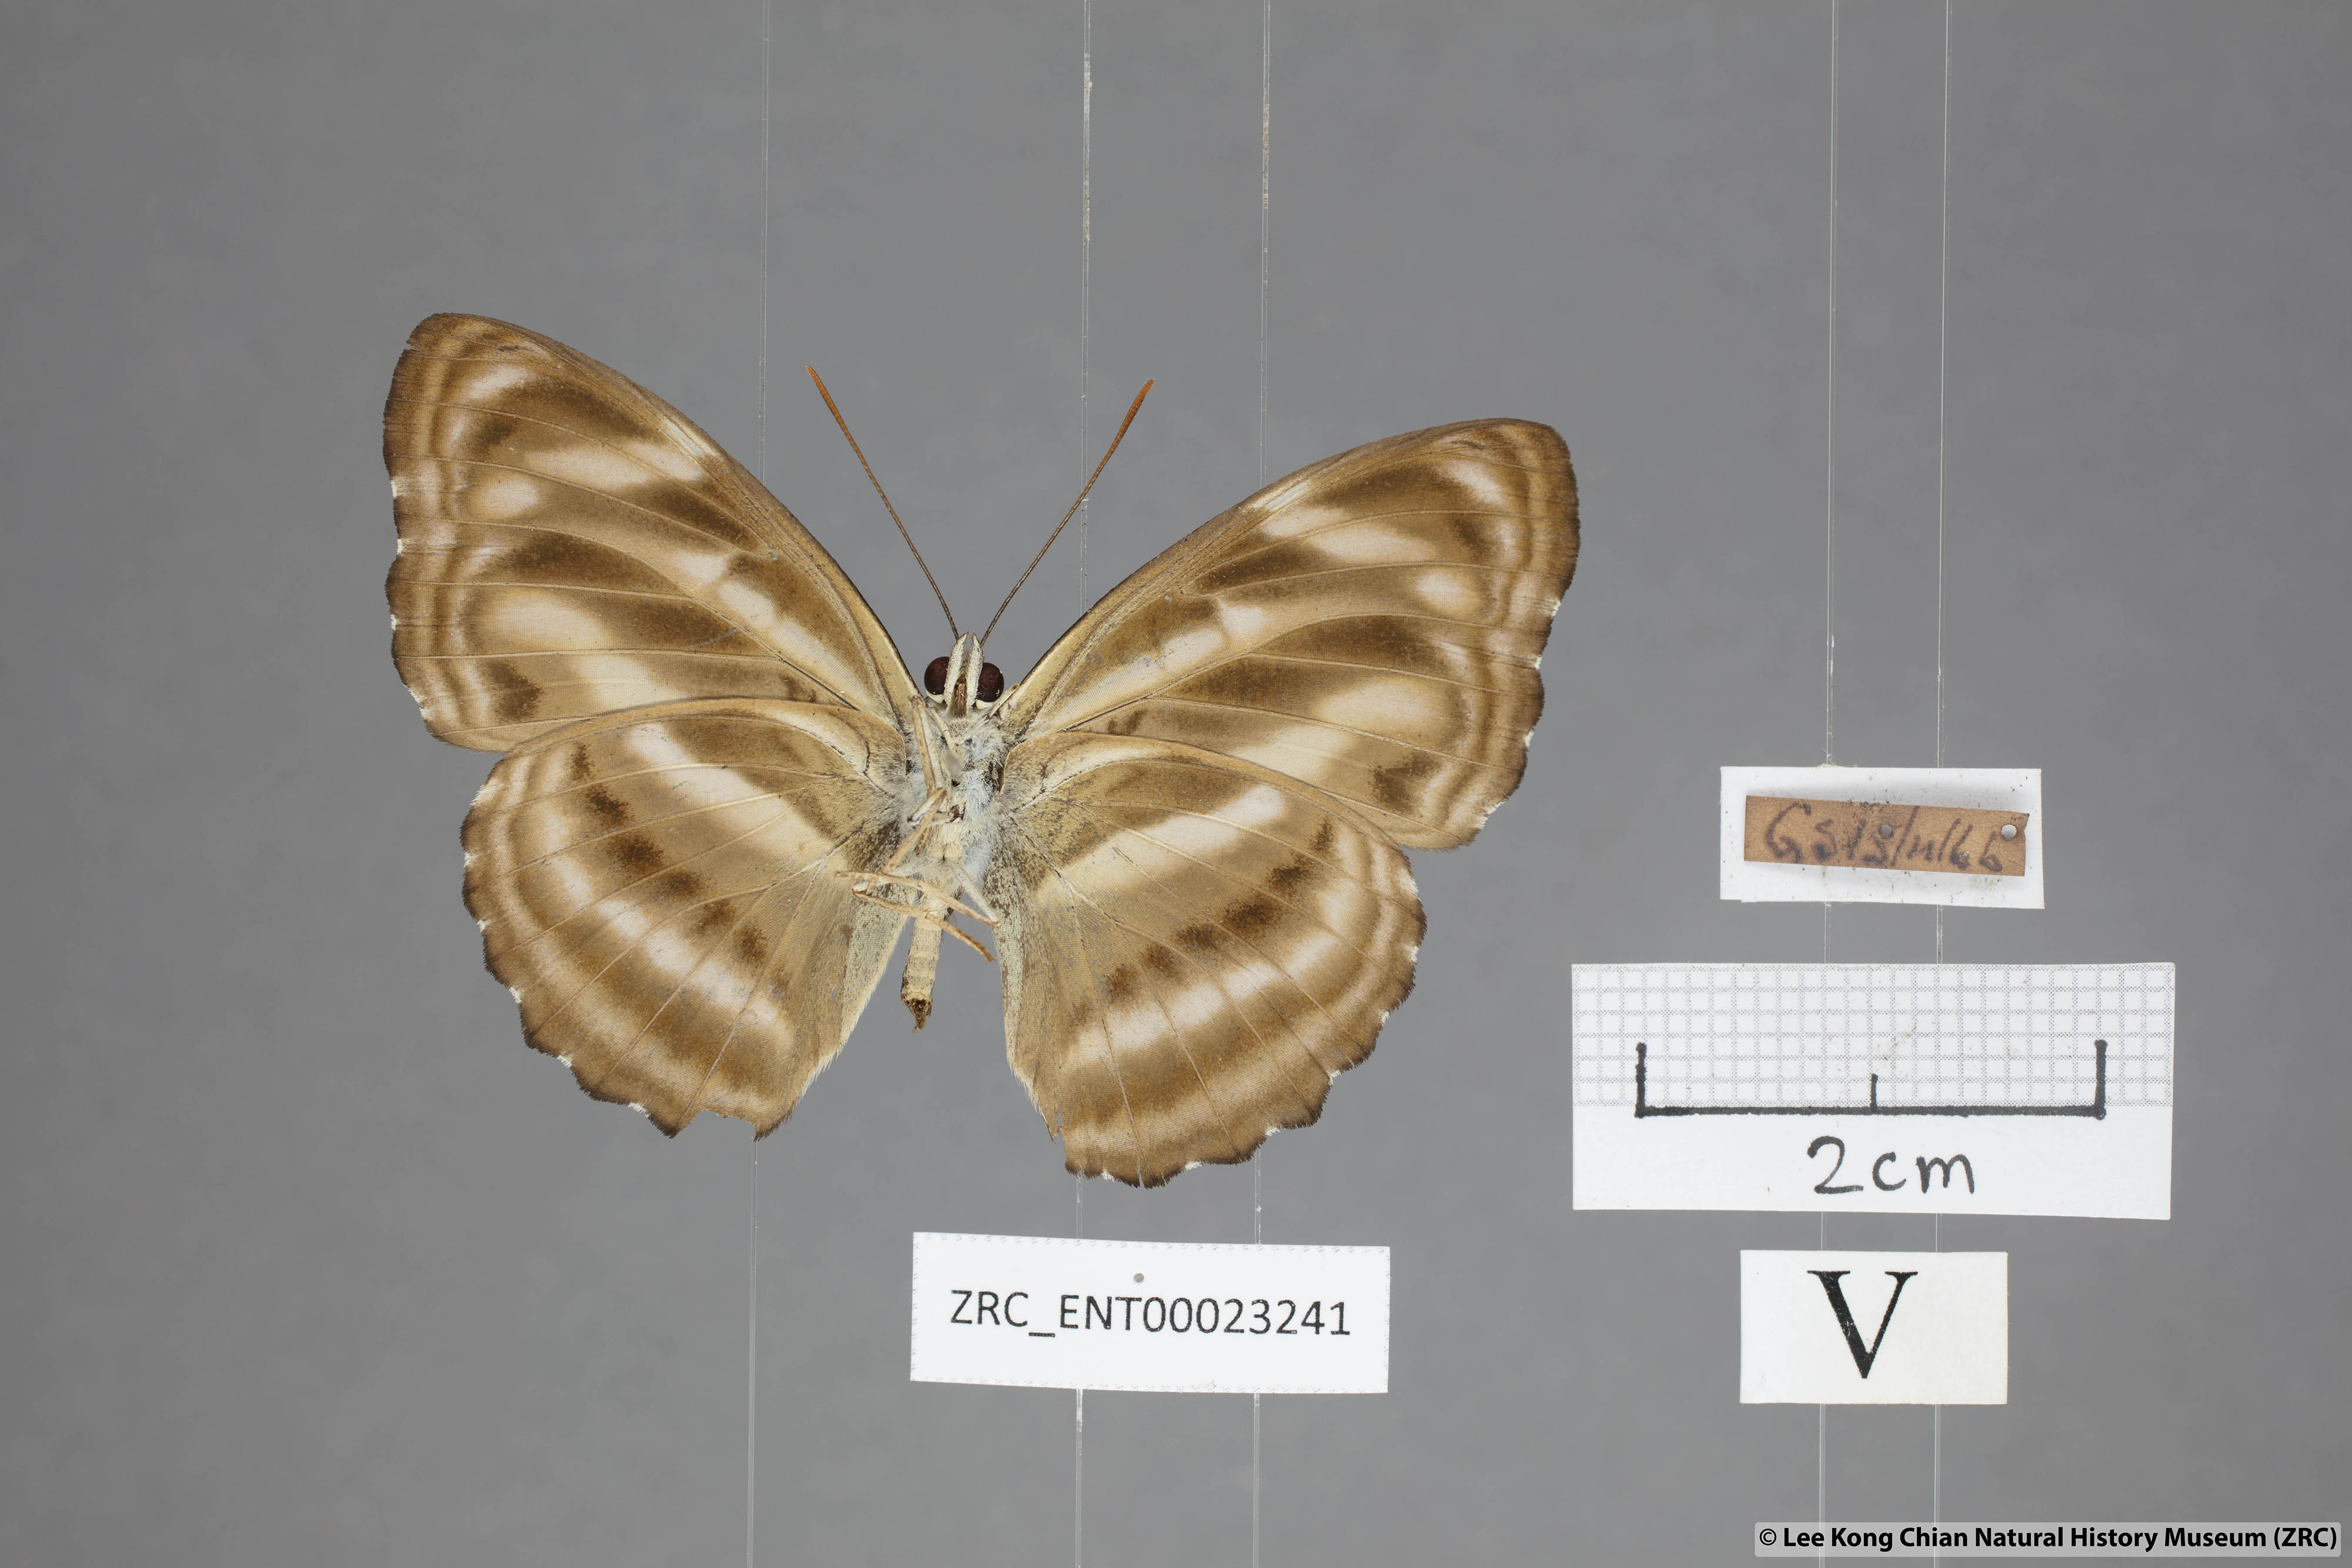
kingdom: Animalia
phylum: Arthropoda
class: Insecta
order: Lepidoptera
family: Nymphalidae
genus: Parathyma
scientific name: Parathyma nefte
